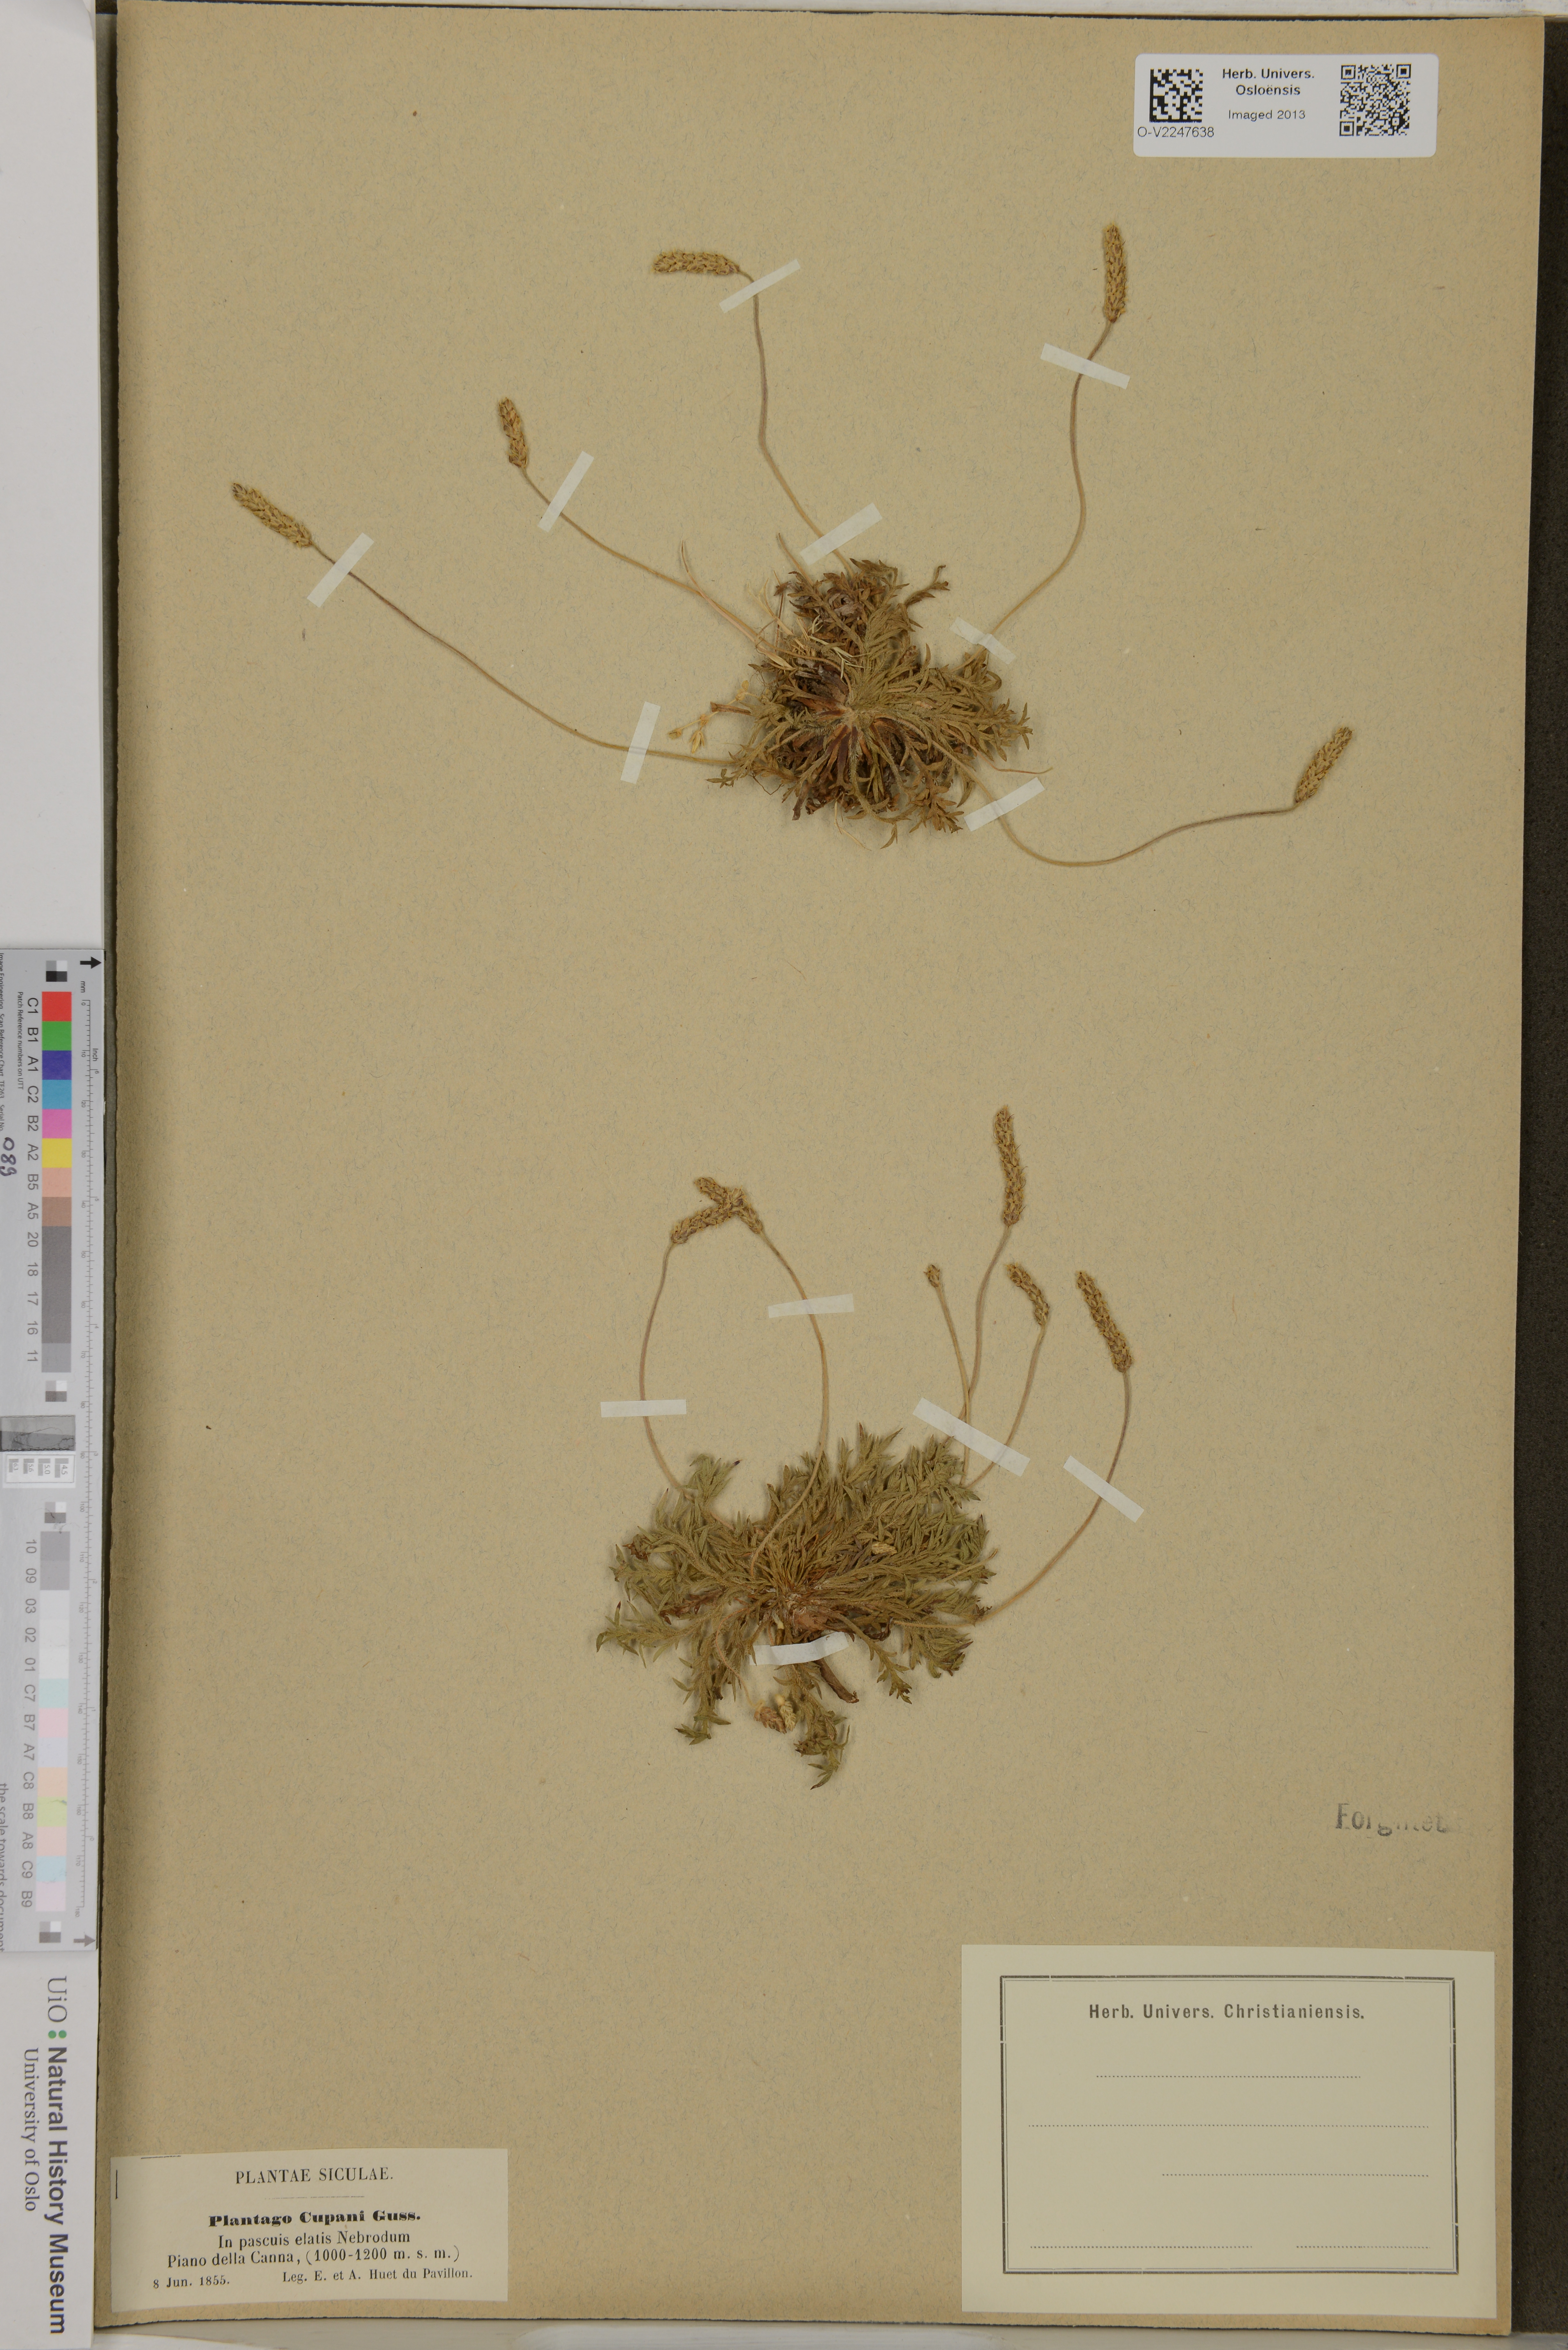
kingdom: Plantae
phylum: Tracheophyta
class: Magnoliopsida
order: Lamiales
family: Plantaginaceae
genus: Plantago
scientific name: Plantago coronopus
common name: Buck's-horn plantain
